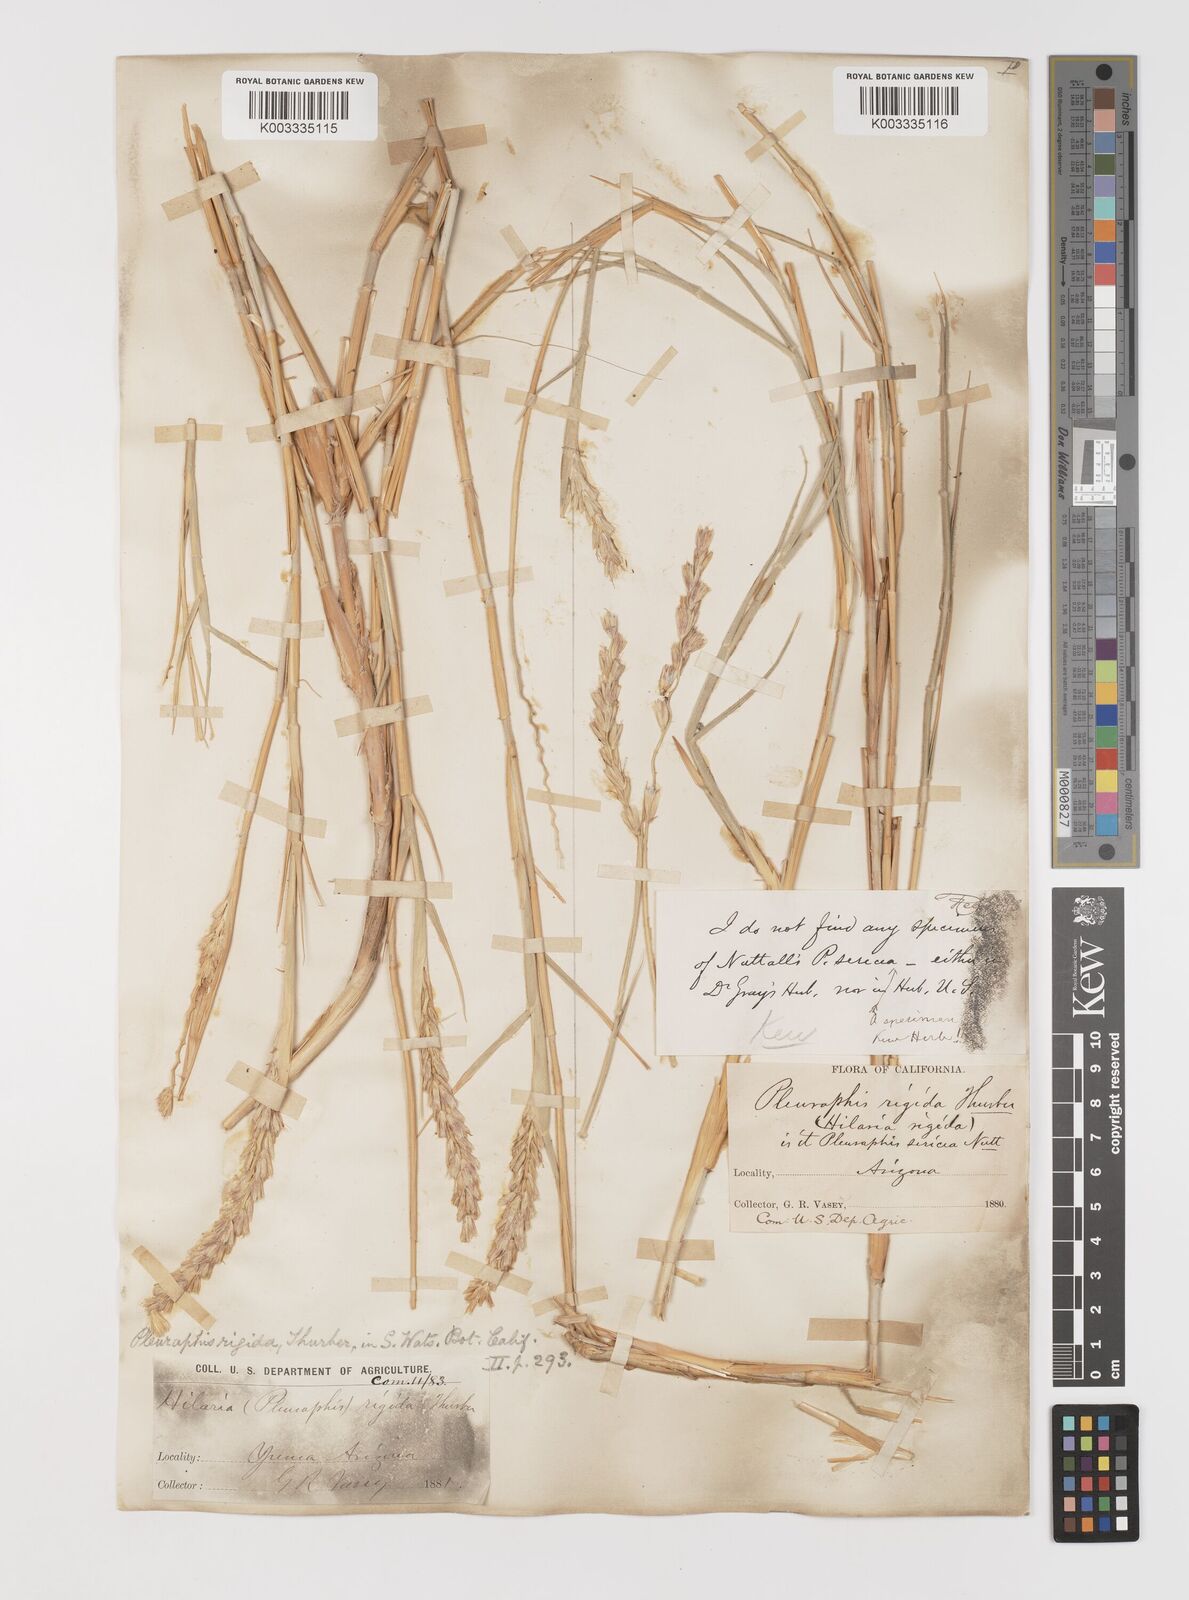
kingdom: Plantae
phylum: Tracheophyta
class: Liliopsida
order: Poales
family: Poaceae
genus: Hilaria
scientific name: Hilaria rigida
